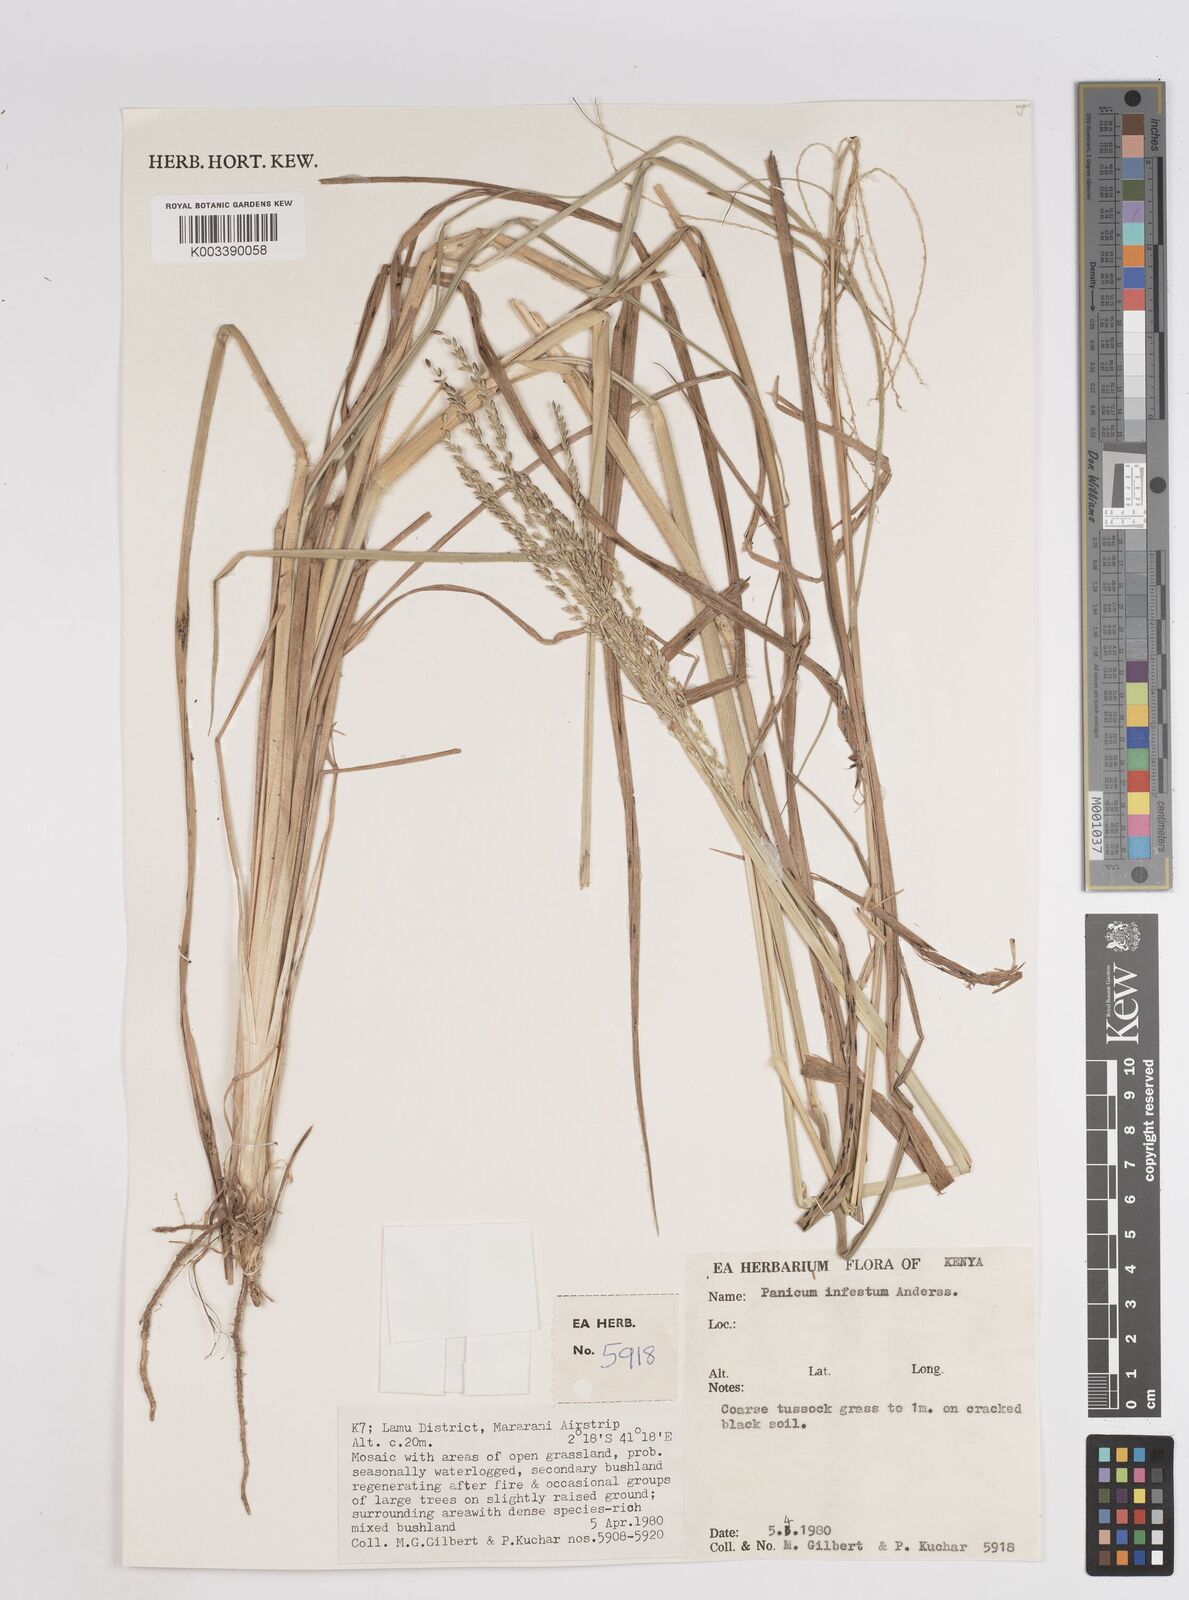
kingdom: Plantae
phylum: Tracheophyta
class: Liliopsida
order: Poales
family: Poaceae
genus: Megathyrsus
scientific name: Megathyrsus infestus
